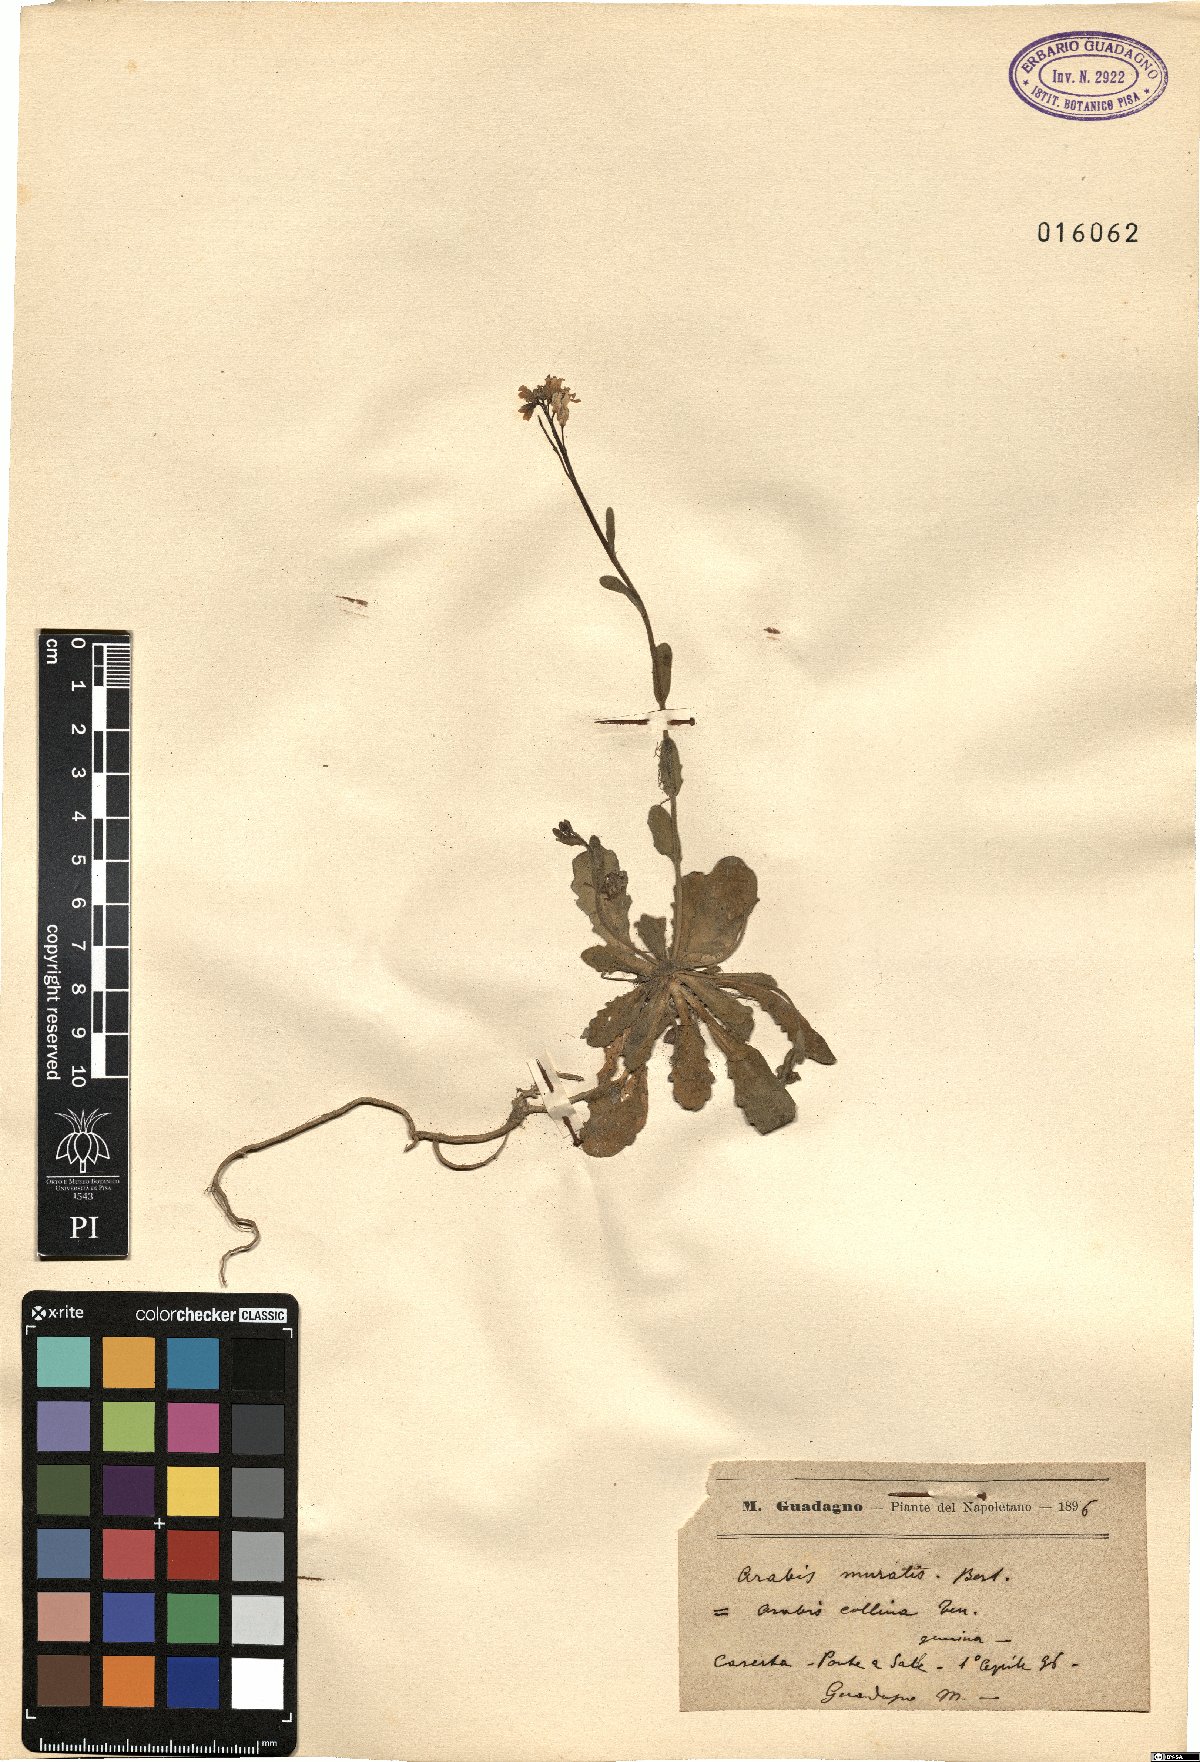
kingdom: Plantae
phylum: Tracheophyta
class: Magnoliopsida
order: Brassicales
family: Brassicaceae
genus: Arabis
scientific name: Arabis collina
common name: Rosy cress
